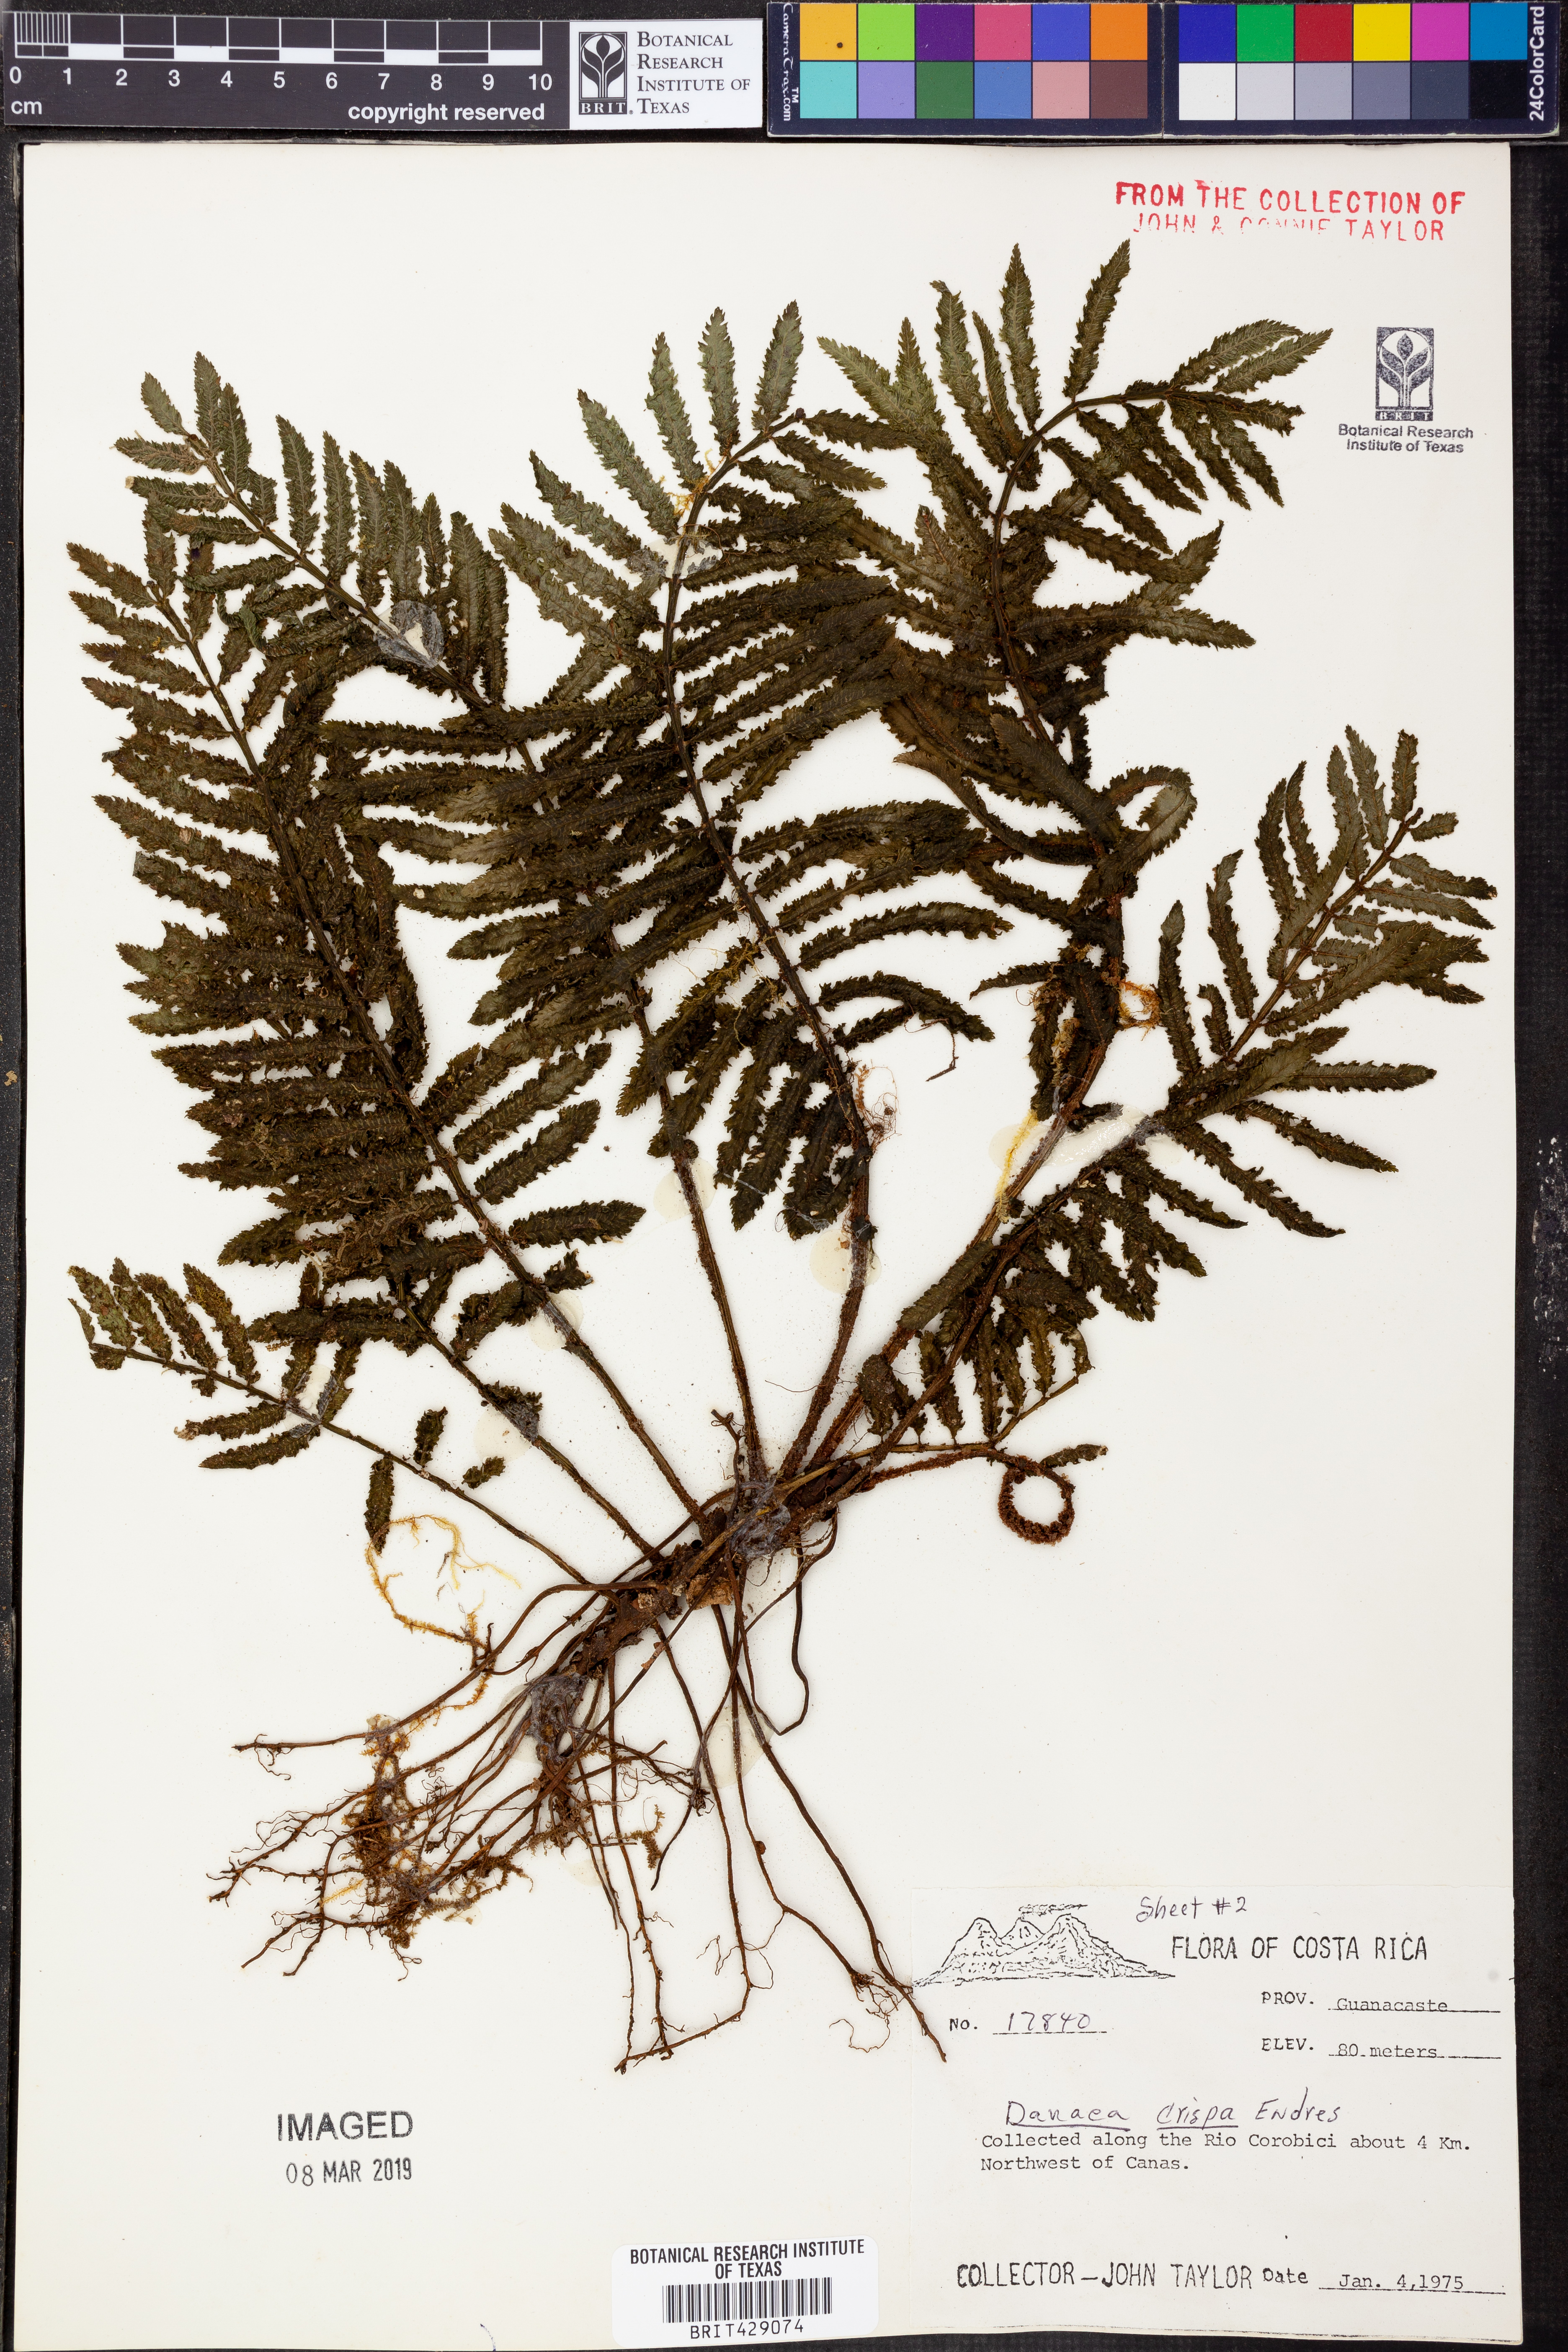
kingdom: Plantae
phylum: Tracheophyta
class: Polypodiopsida
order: Marattiales
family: Marattiaceae
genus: Danaea
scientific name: Danaea crispa
